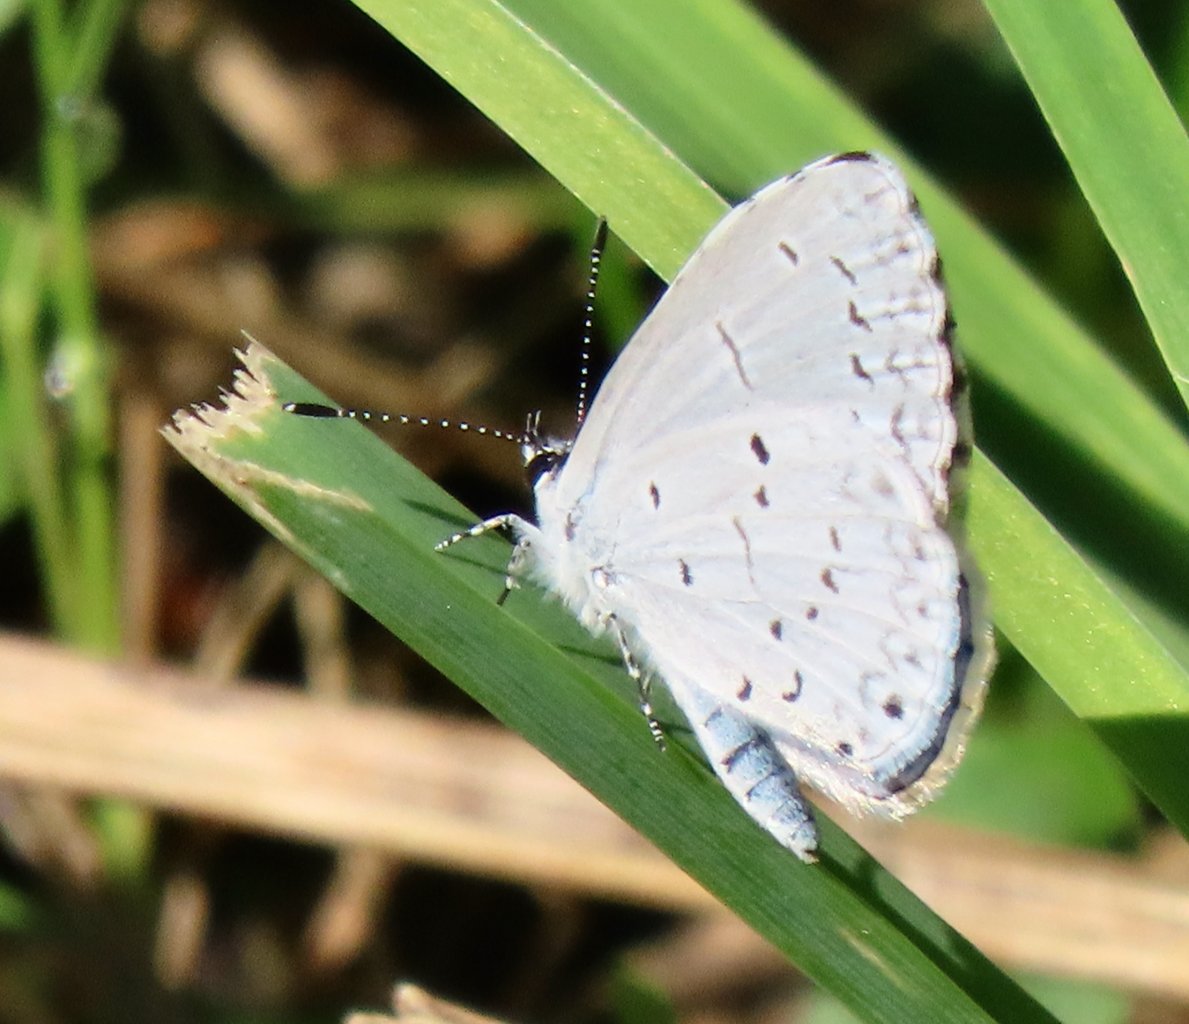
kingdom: Animalia
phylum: Arthropoda
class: Insecta
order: Lepidoptera
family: Lycaenidae
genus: Cyaniris
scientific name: Cyaniris neglecta
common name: Summer Azure
